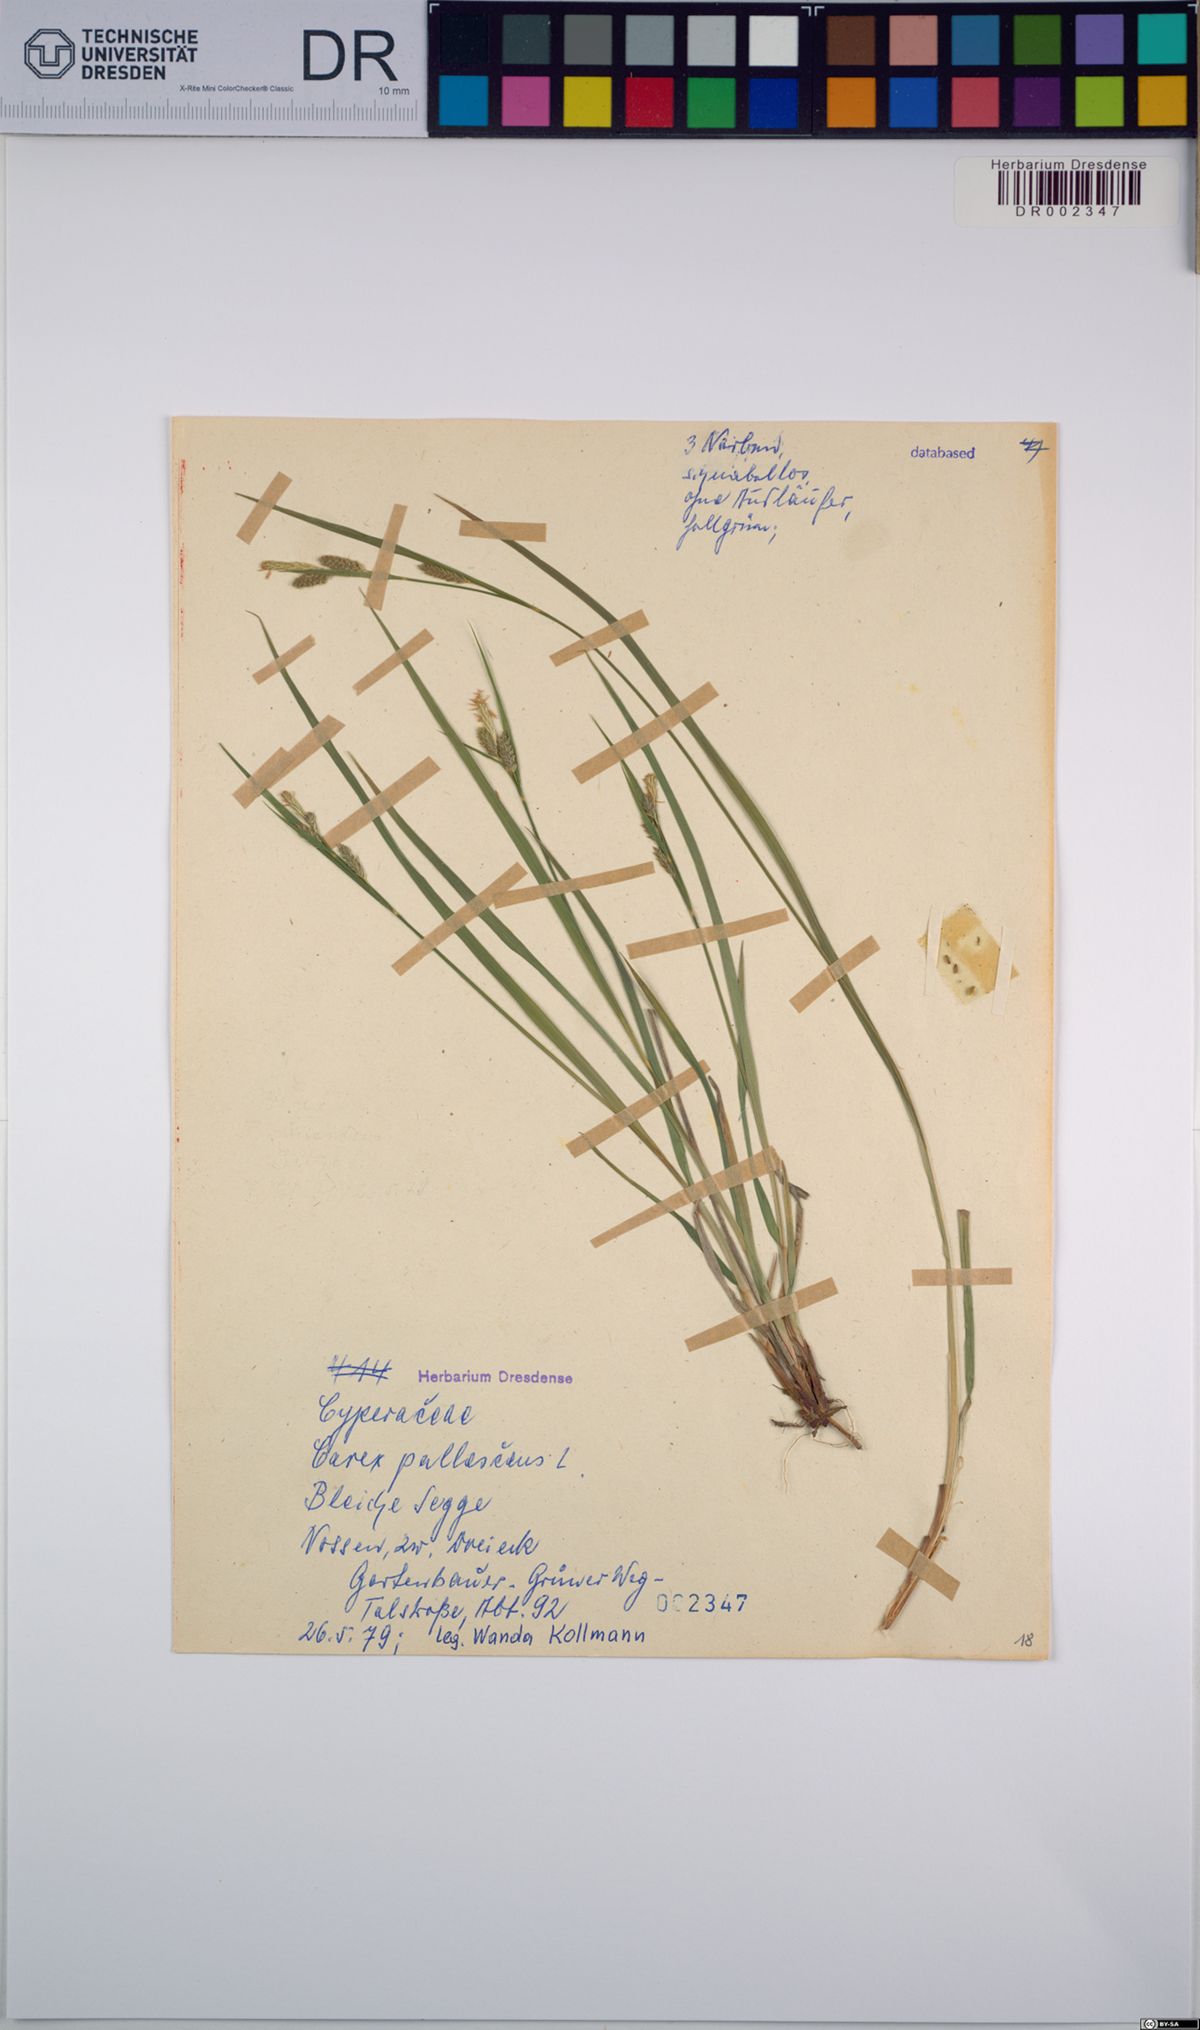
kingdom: Plantae
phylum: Tracheophyta
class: Liliopsida
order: Poales
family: Cyperaceae
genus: Carex
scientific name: Carex pallescens
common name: Pale sedge
